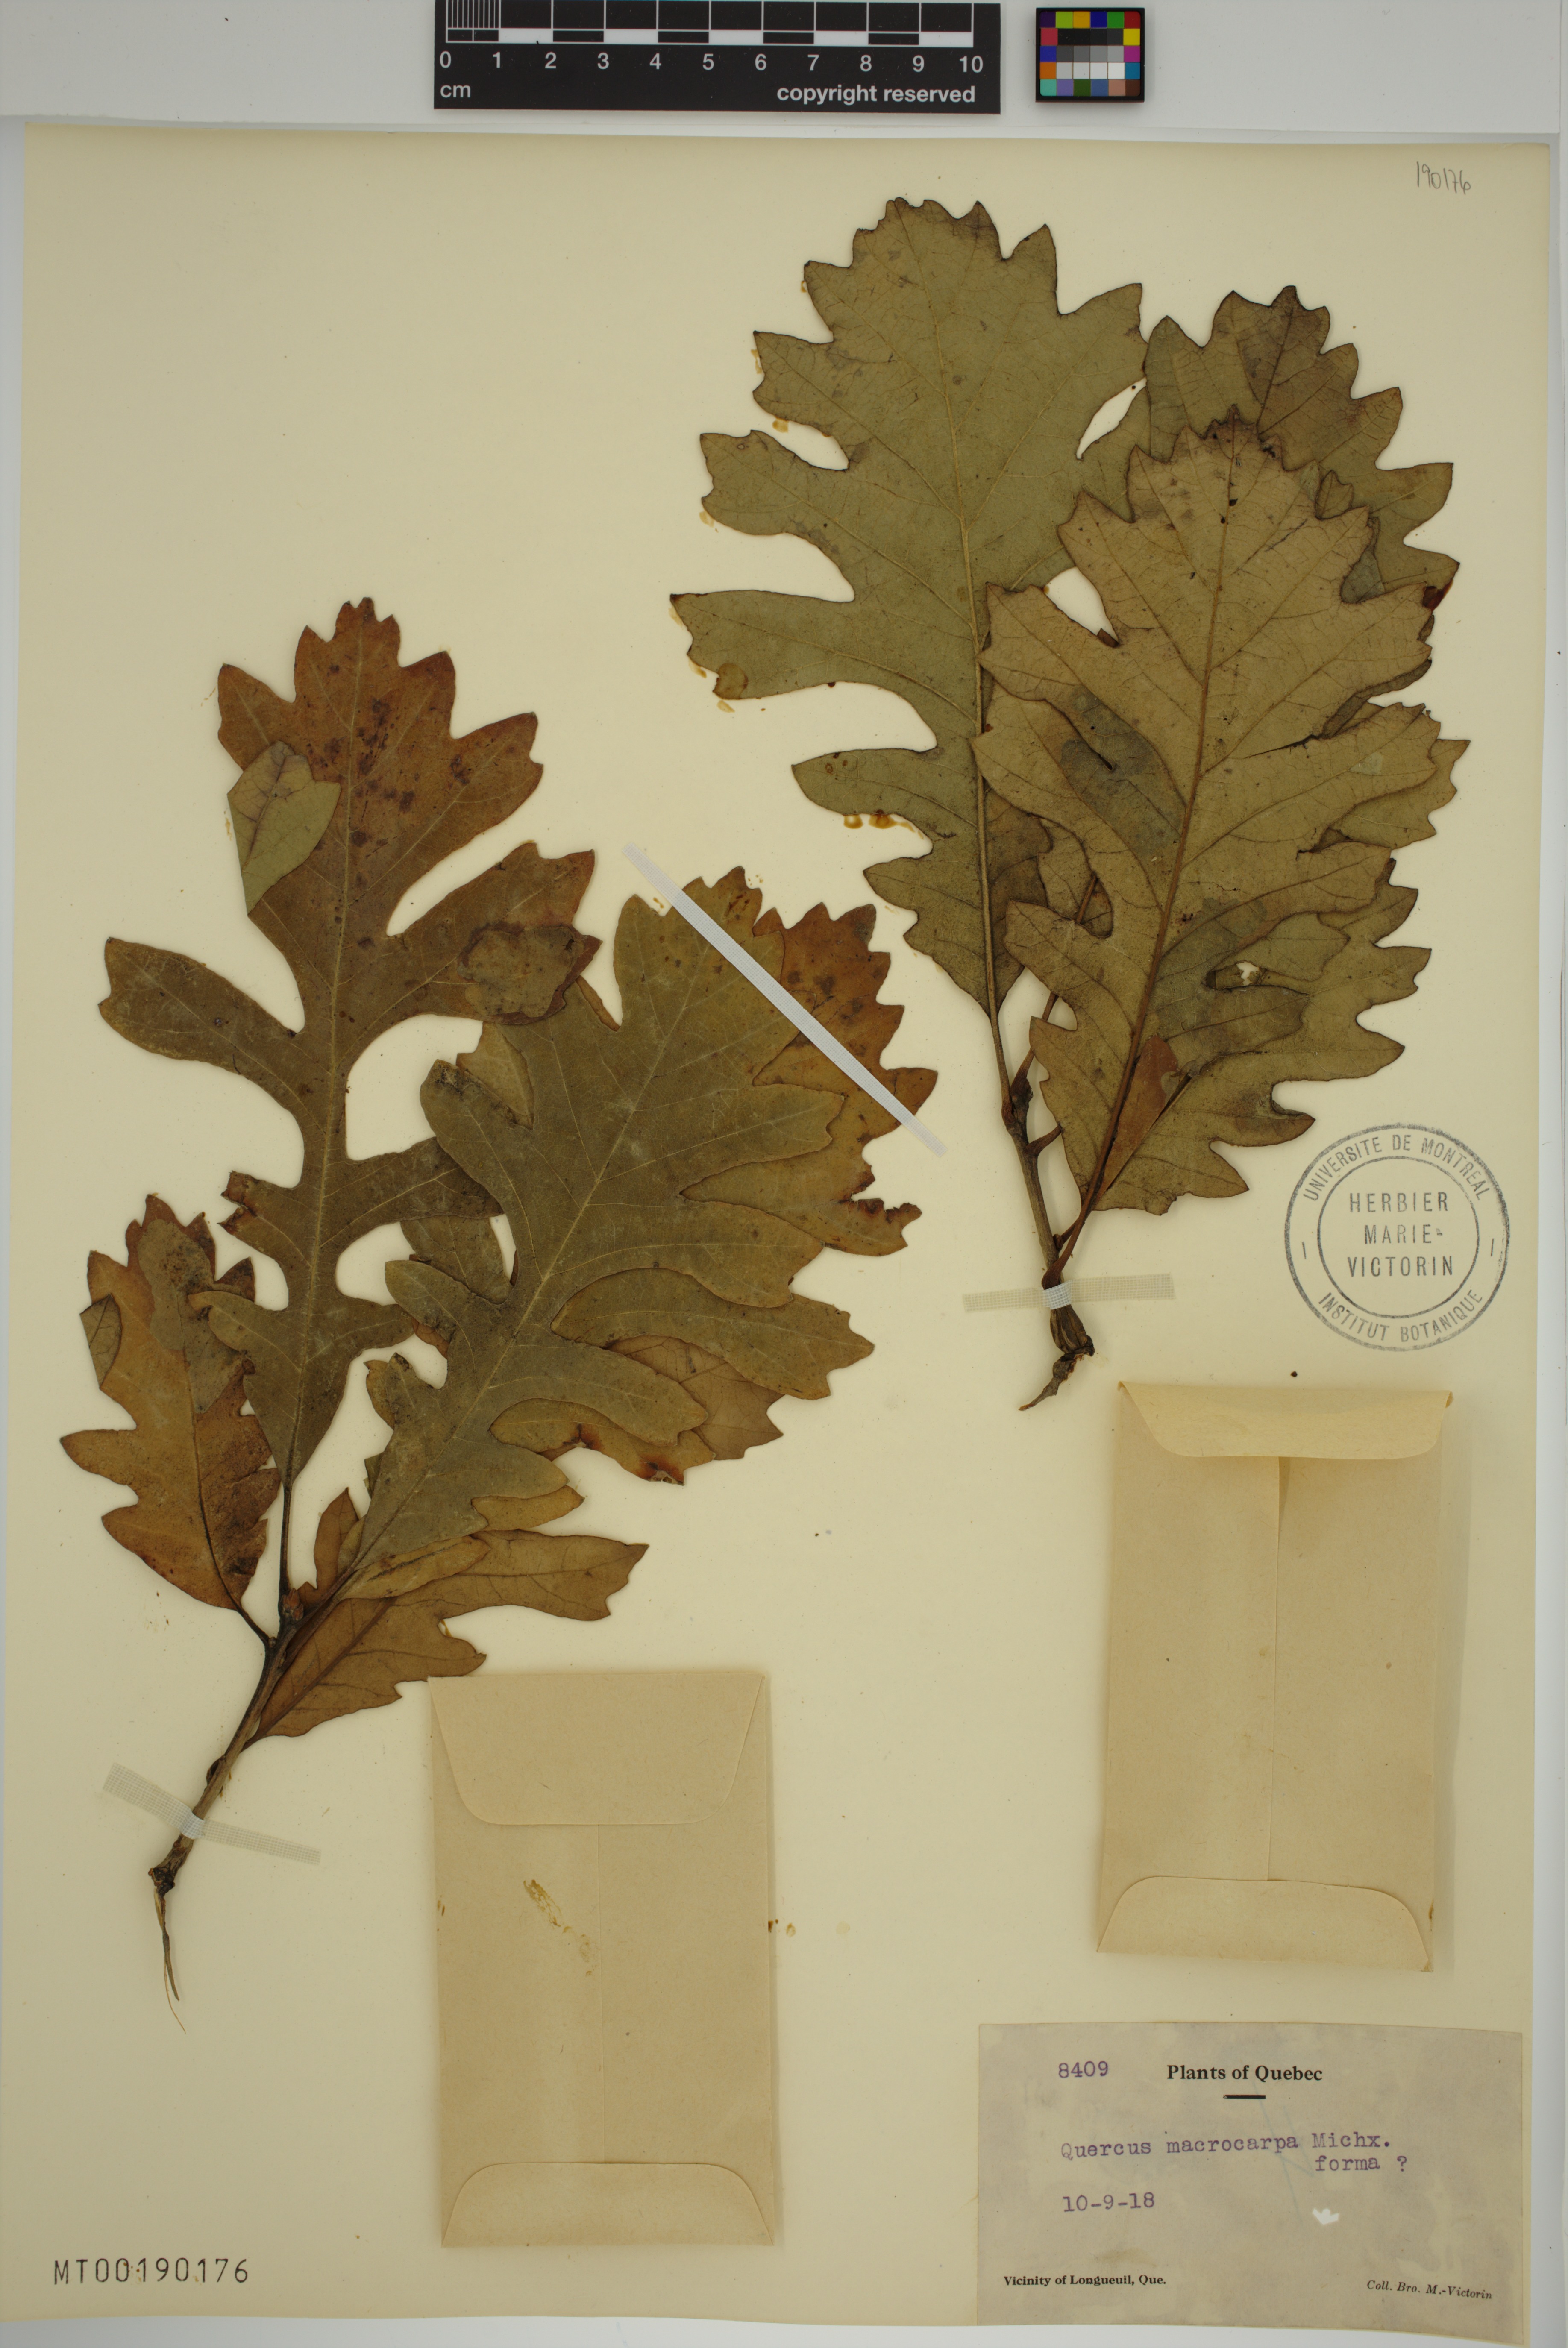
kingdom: Plantae
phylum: Tracheophyta
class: Magnoliopsida
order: Fagales
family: Fagaceae
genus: Quercus
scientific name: Quercus macrocarpa
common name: Bur oak
